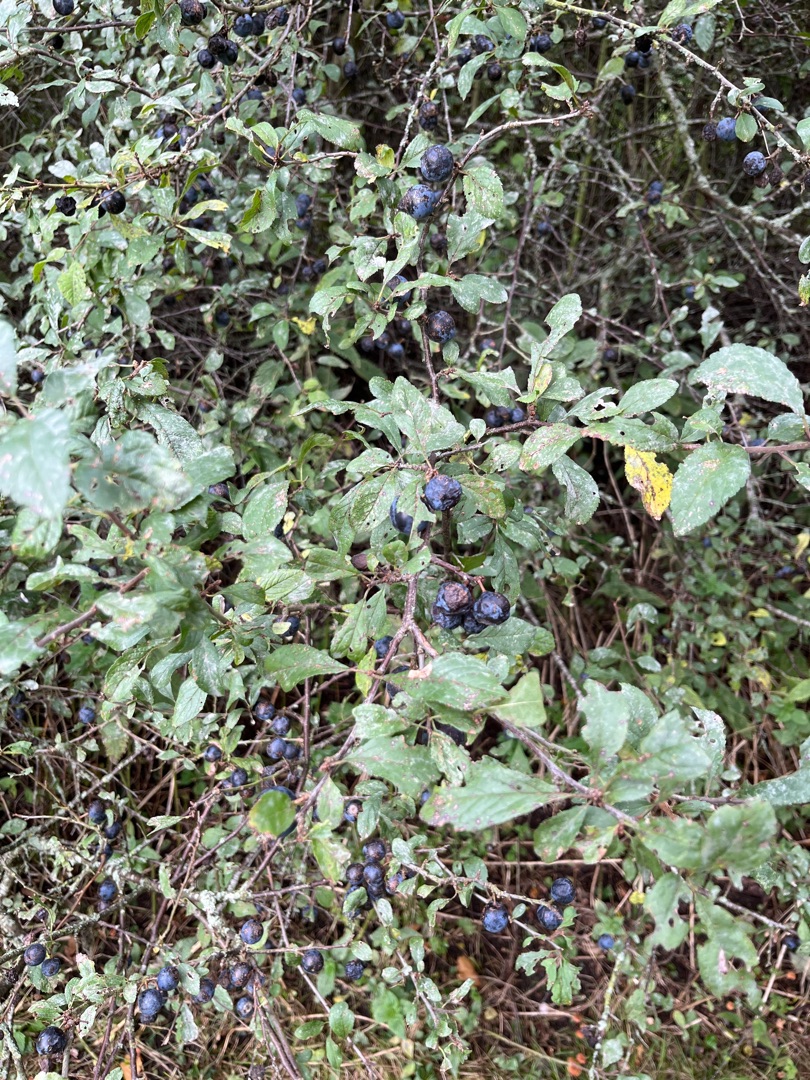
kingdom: Plantae
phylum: Tracheophyta
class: Magnoliopsida
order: Rosales
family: Rosaceae
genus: Prunus
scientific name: Prunus spinosa
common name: Slåen
